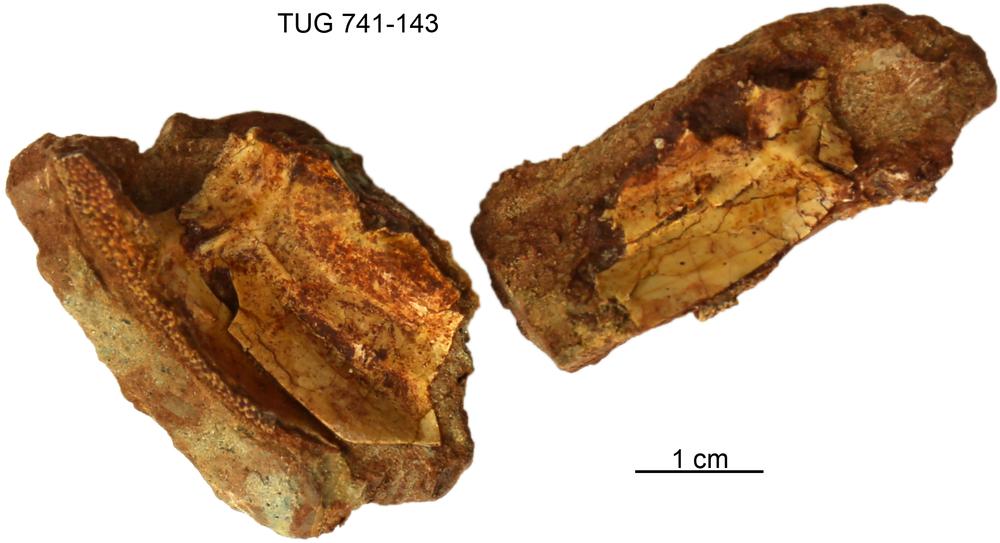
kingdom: Animalia
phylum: Chordata
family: Asterolepididae
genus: Asterolepis
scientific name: Asterolepis estonica
